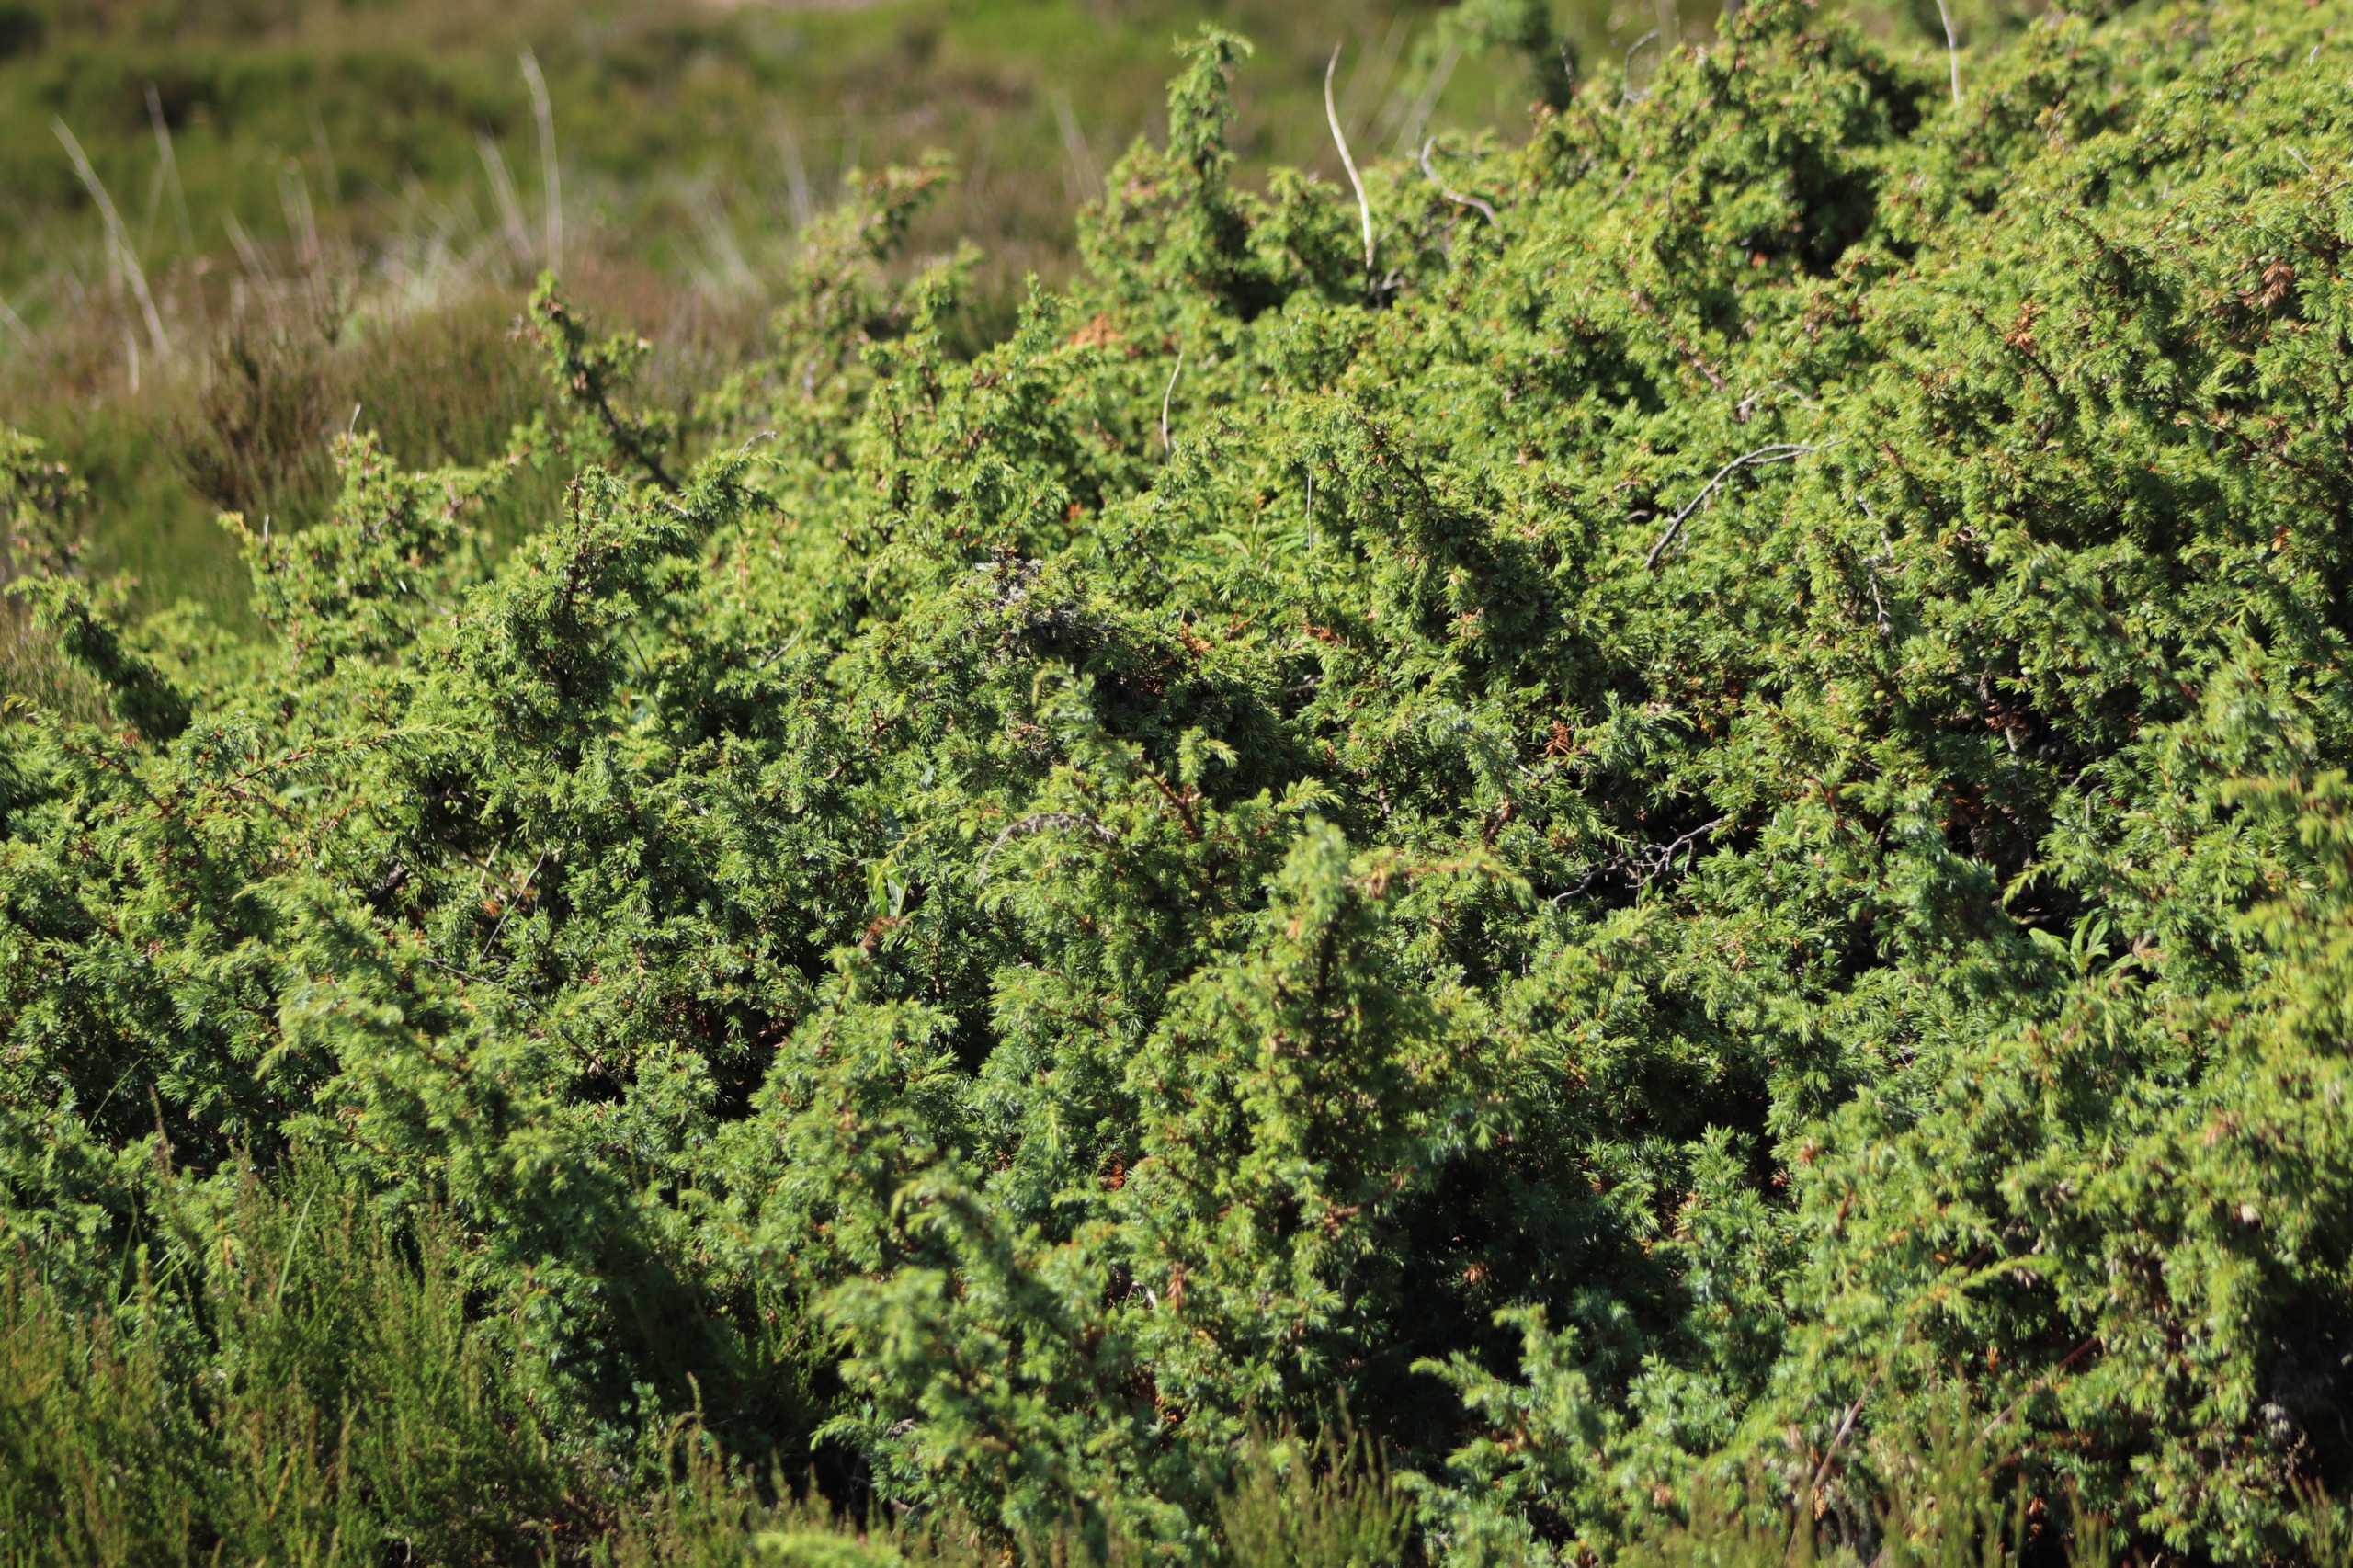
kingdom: Plantae
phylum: Tracheophyta
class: Pinopsida
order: Pinales
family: Cupressaceae
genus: Juniperus
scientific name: Juniperus communis
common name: Almindelig ene
